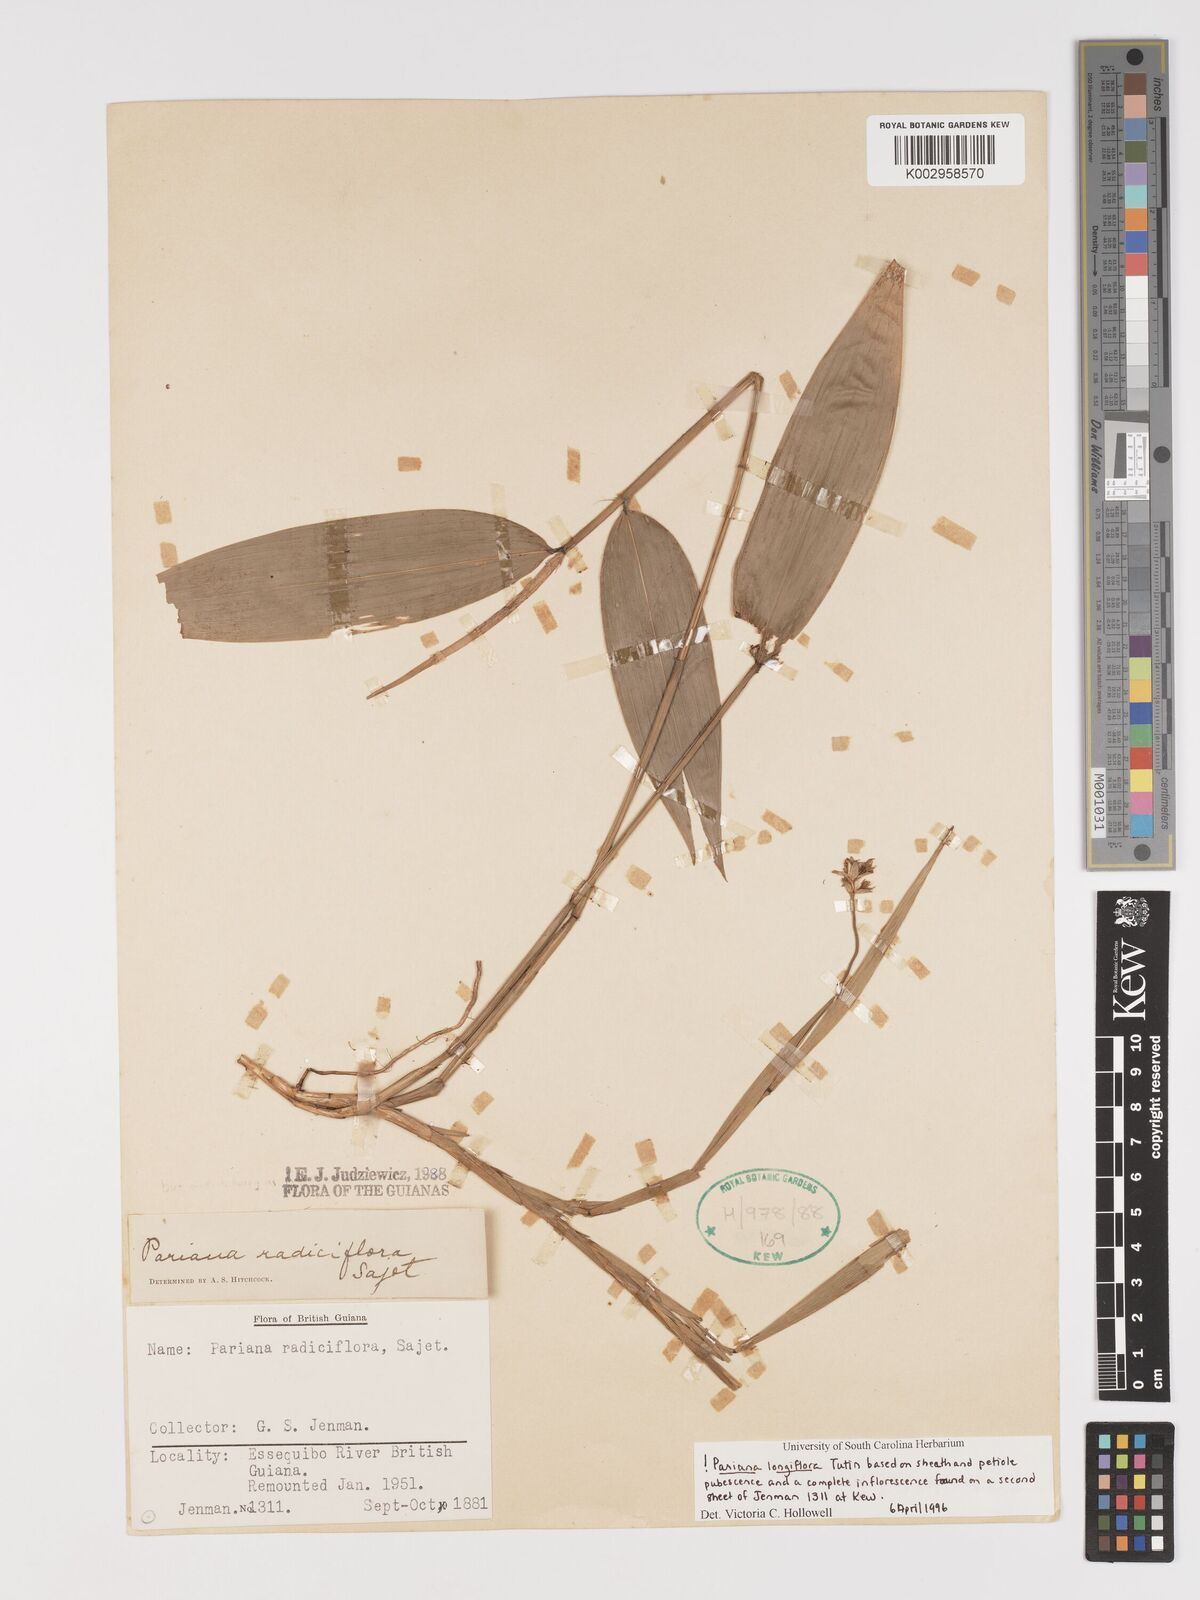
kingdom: Plantae
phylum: Tracheophyta
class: Liliopsida
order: Poales
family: Poaceae
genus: Pariana
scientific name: Pariana radiciflora
